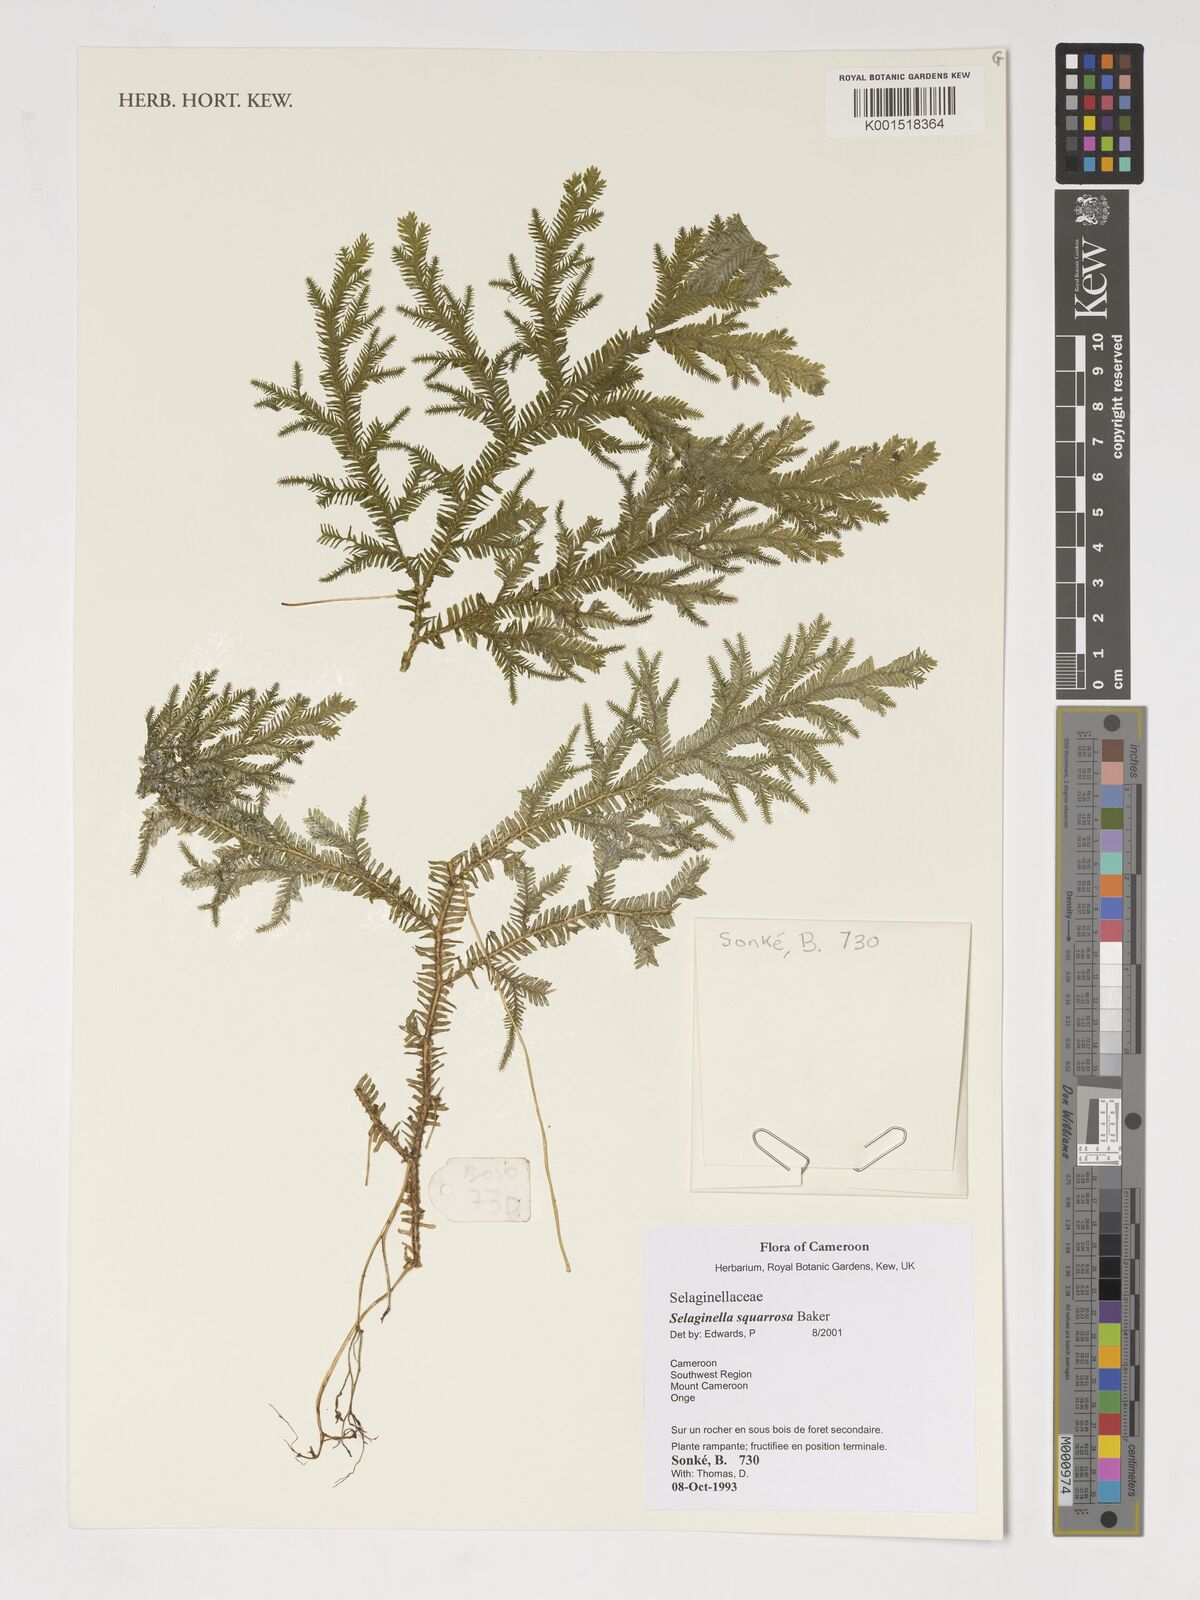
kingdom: Plantae
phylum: Tracheophyta
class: Lycopodiopsida
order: Selaginellales
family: Selaginellaceae
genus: Selaginella
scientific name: Selaginella squarrosa
